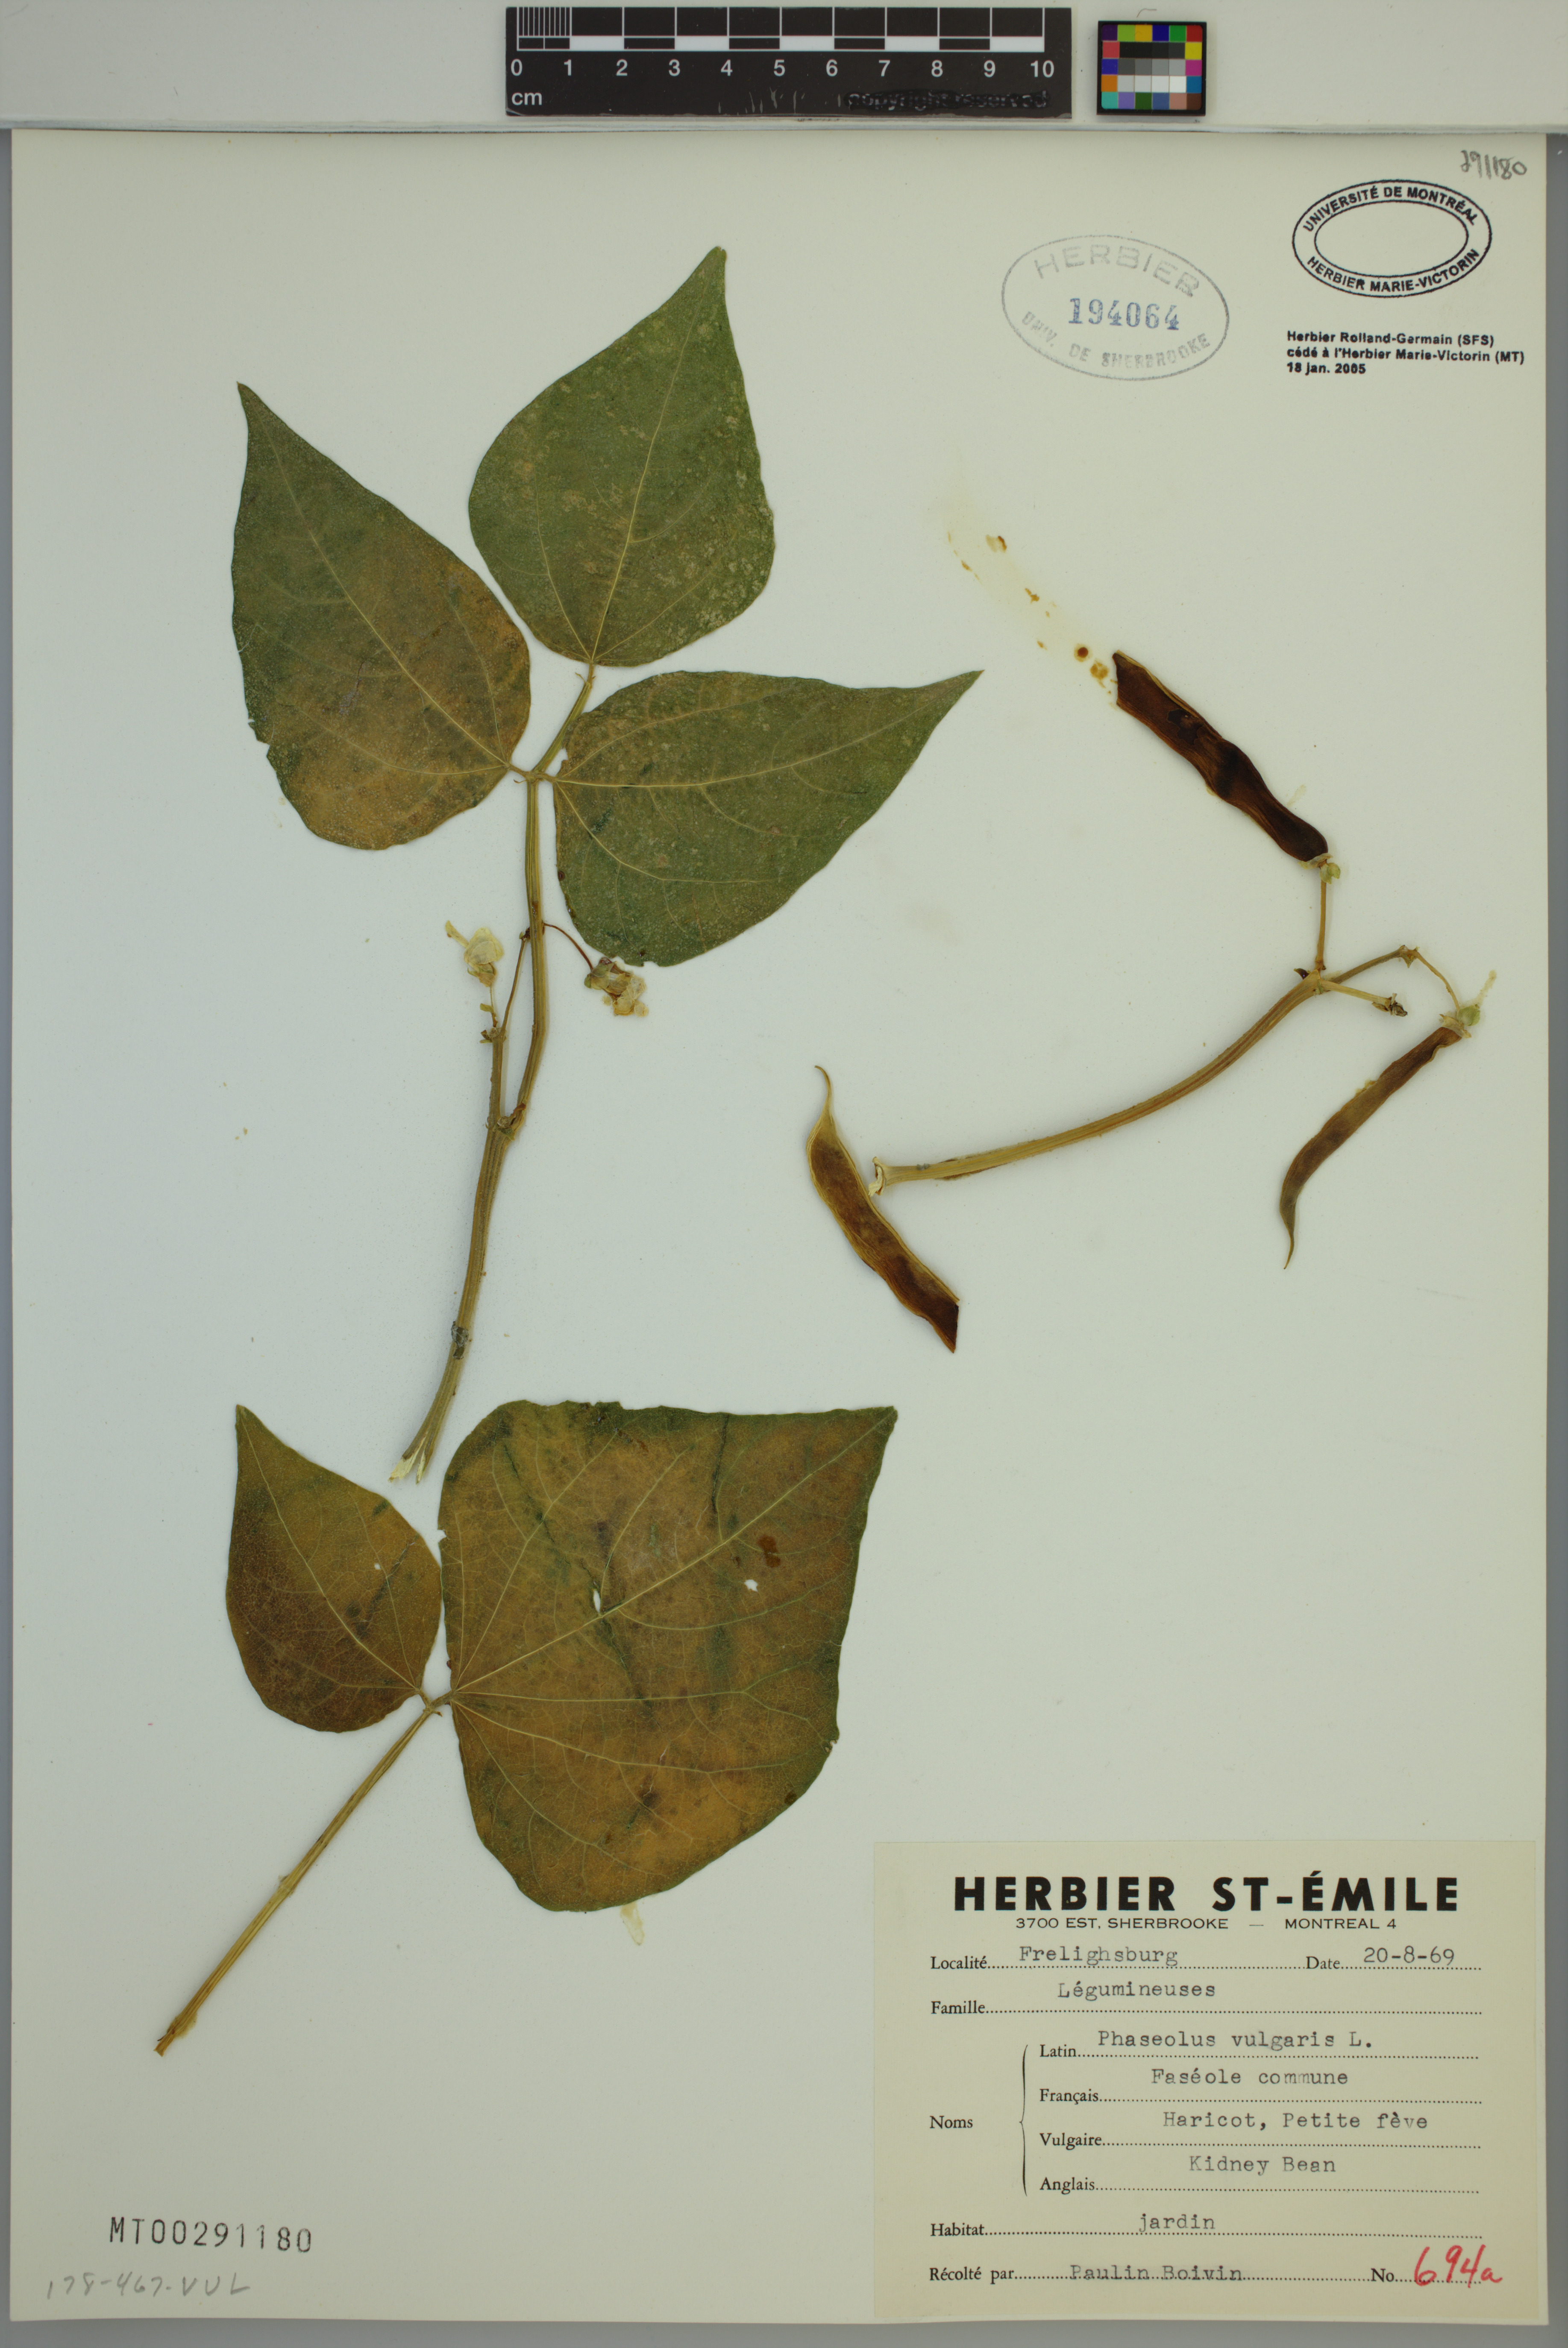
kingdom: Plantae
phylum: Tracheophyta
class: Magnoliopsida
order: Fabales
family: Fabaceae
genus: Phaseolus
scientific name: Phaseolus vulgaris
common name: Bean
